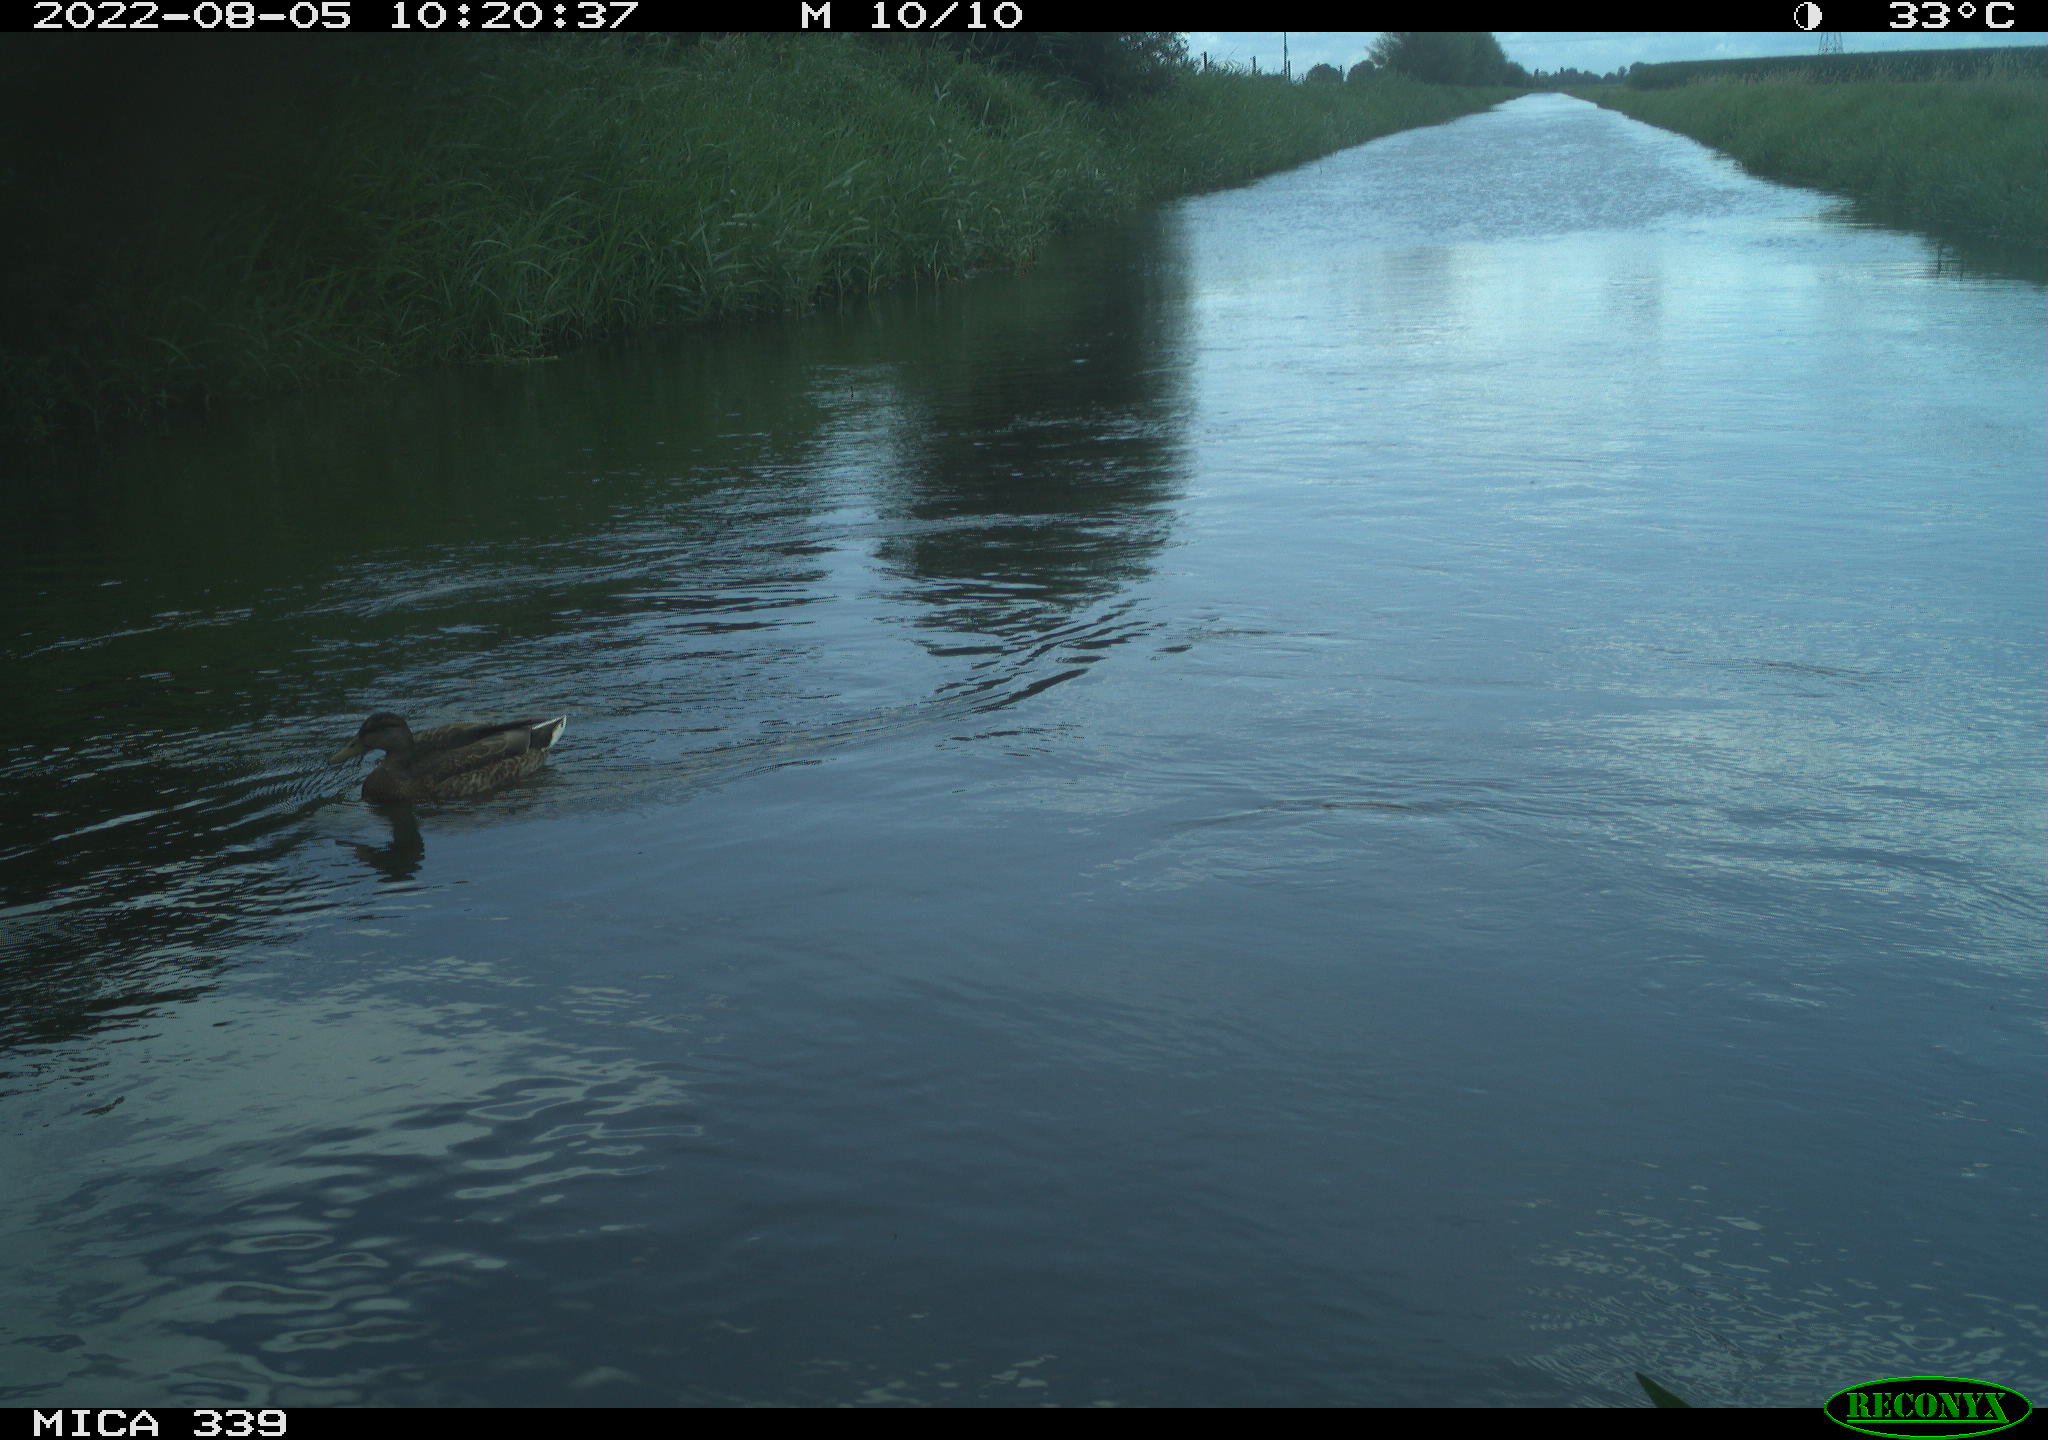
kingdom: Animalia
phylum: Chordata
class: Aves
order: Anseriformes
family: Anatidae
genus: Anas
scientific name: Anas platyrhynchos
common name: Mallard
